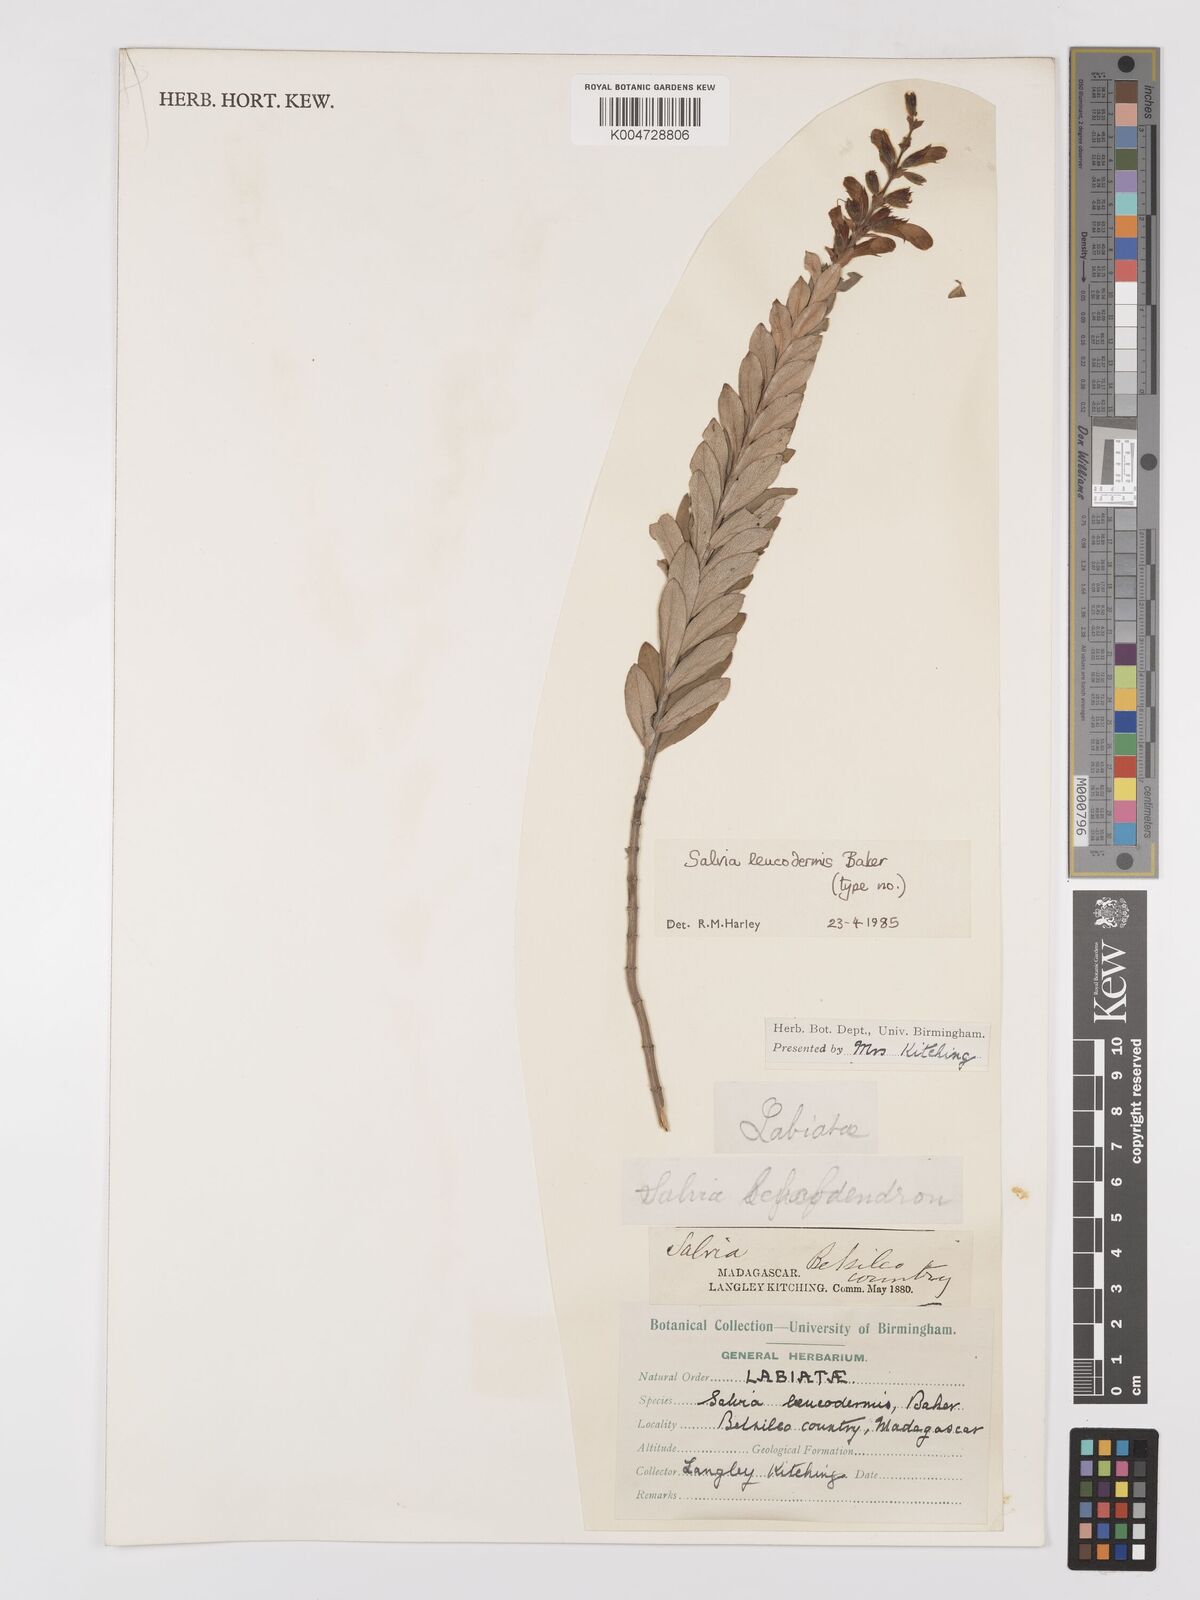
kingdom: Plantae
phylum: Tracheophyta
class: Magnoliopsida
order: Lamiales
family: Lamiaceae
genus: Salvia
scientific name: Salvia leucodermis
